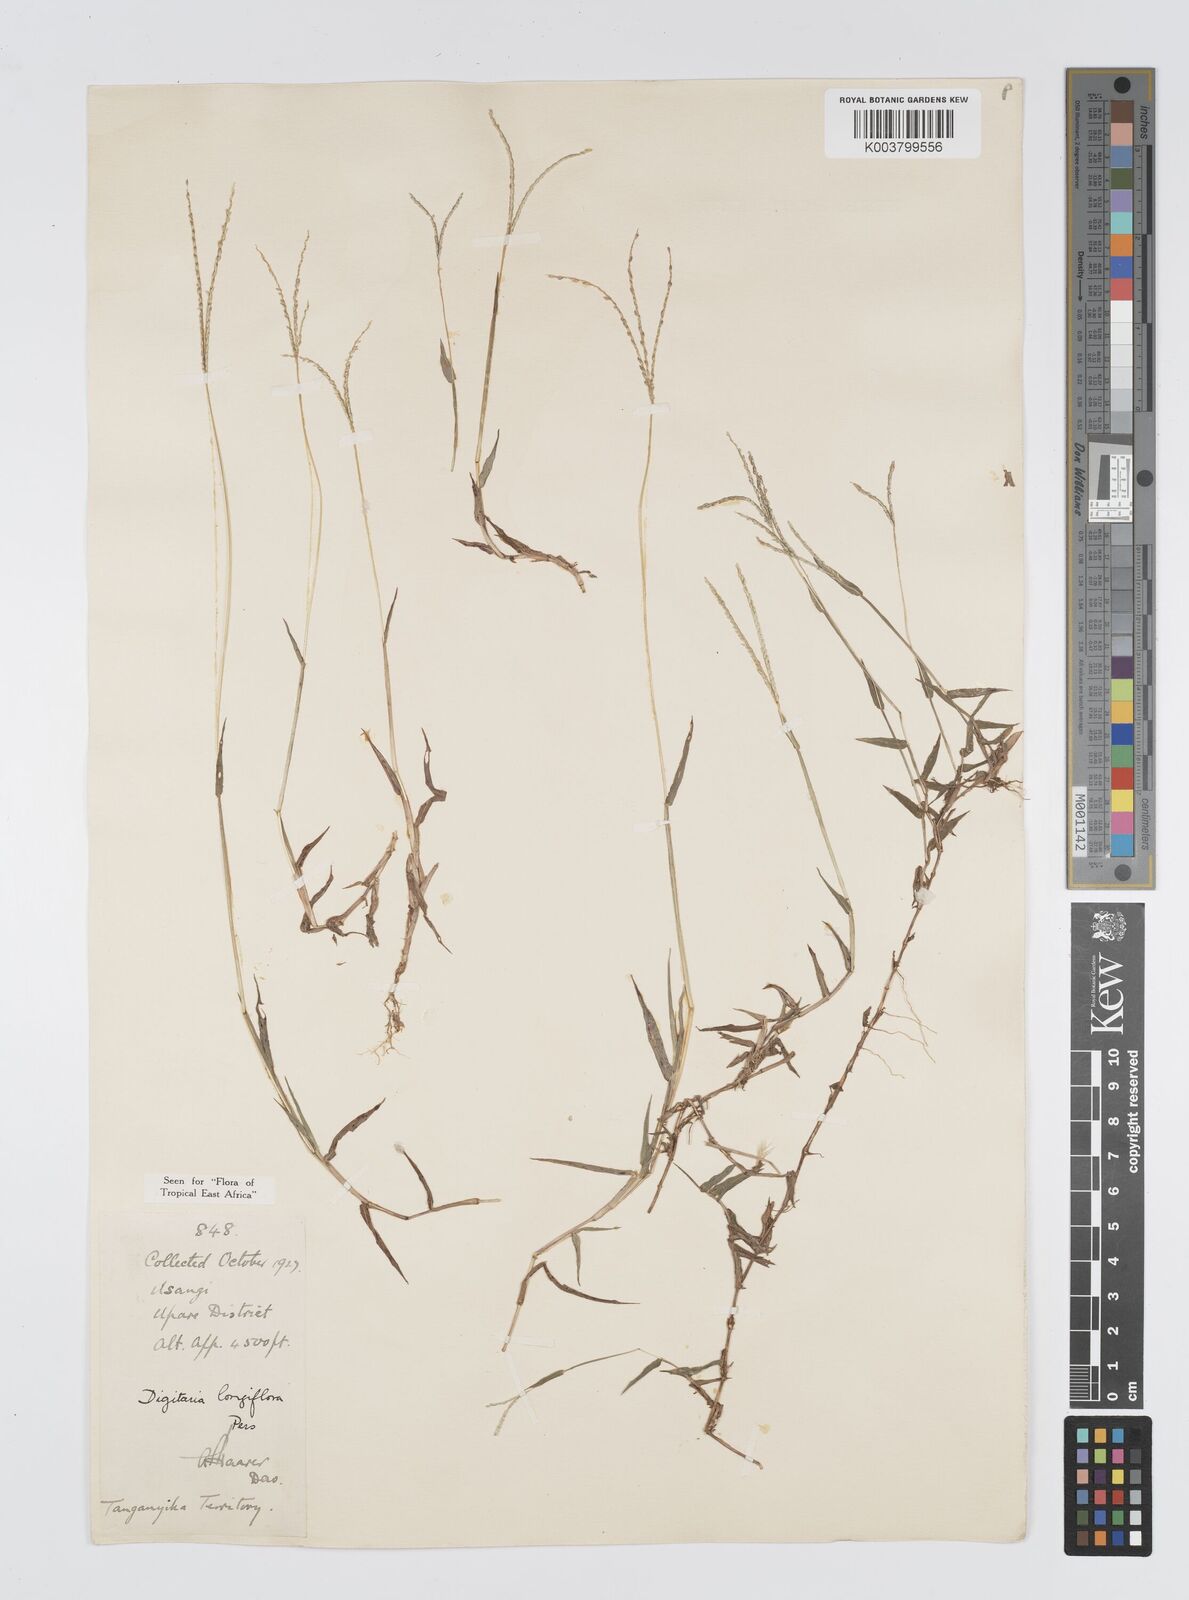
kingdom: Plantae
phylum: Tracheophyta
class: Liliopsida
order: Poales
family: Poaceae
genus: Digitaria
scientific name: Digitaria longiflora
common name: Wire crabgrass
